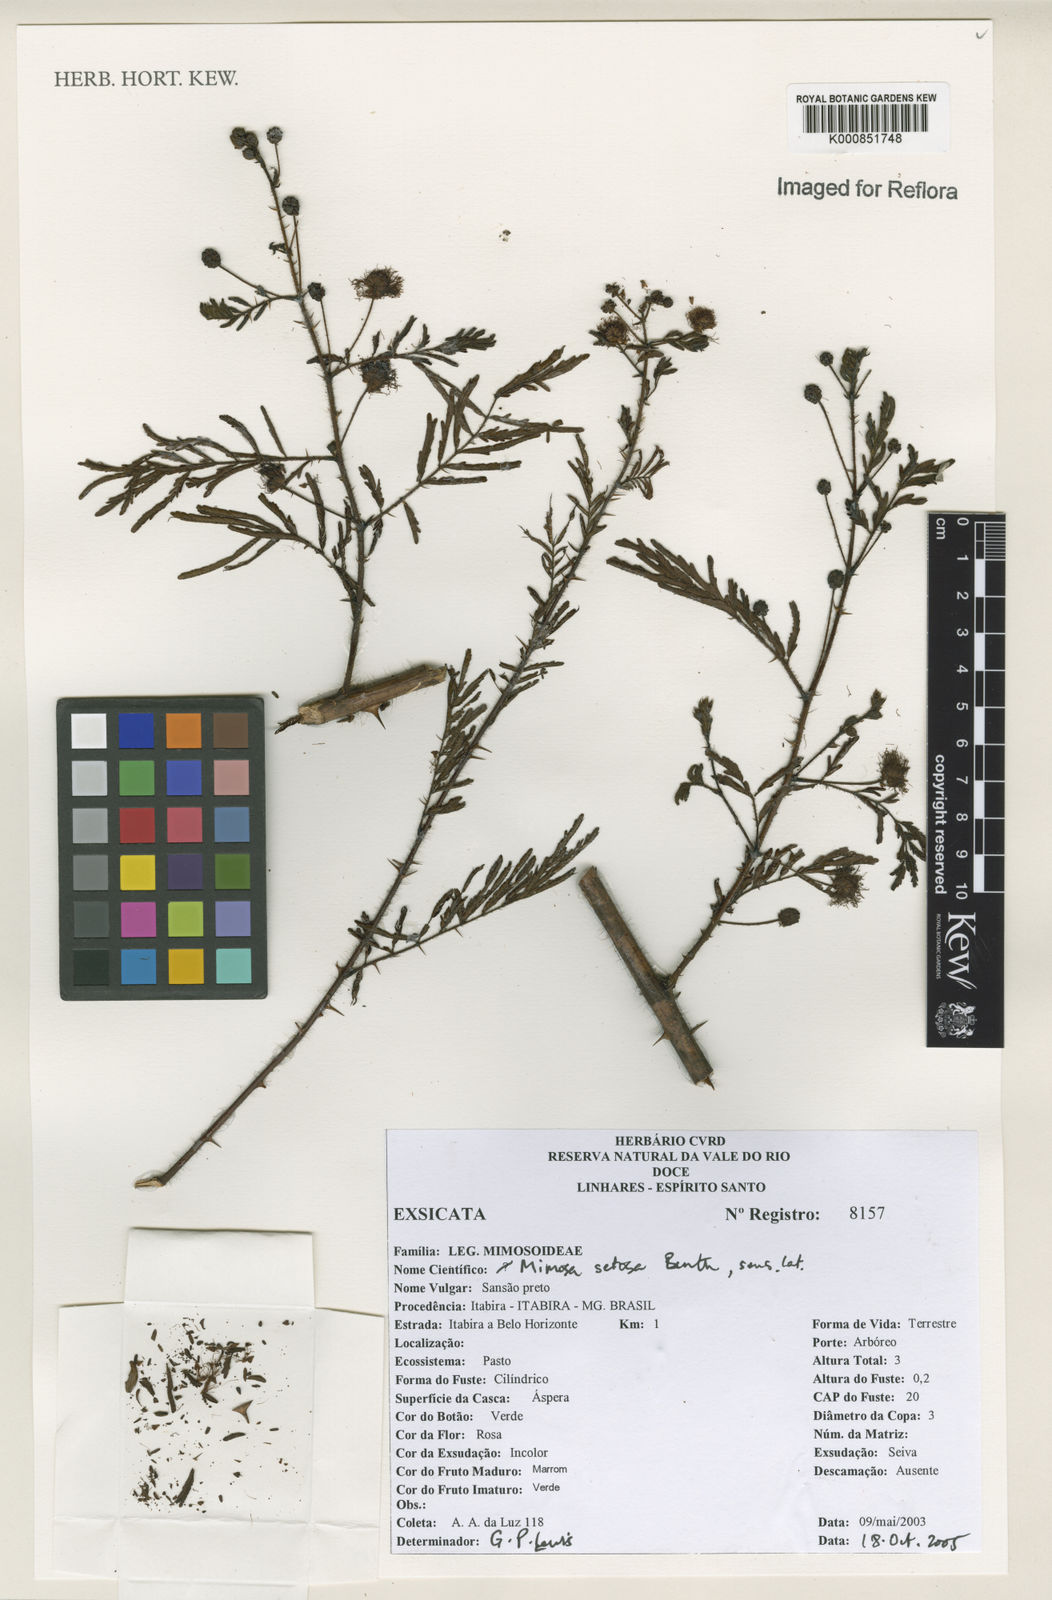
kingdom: Plantae
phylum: Tracheophyta
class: Magnoliopsida
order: Fabales
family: Fabaceae
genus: Mimosa
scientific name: Mimosa paludosa
